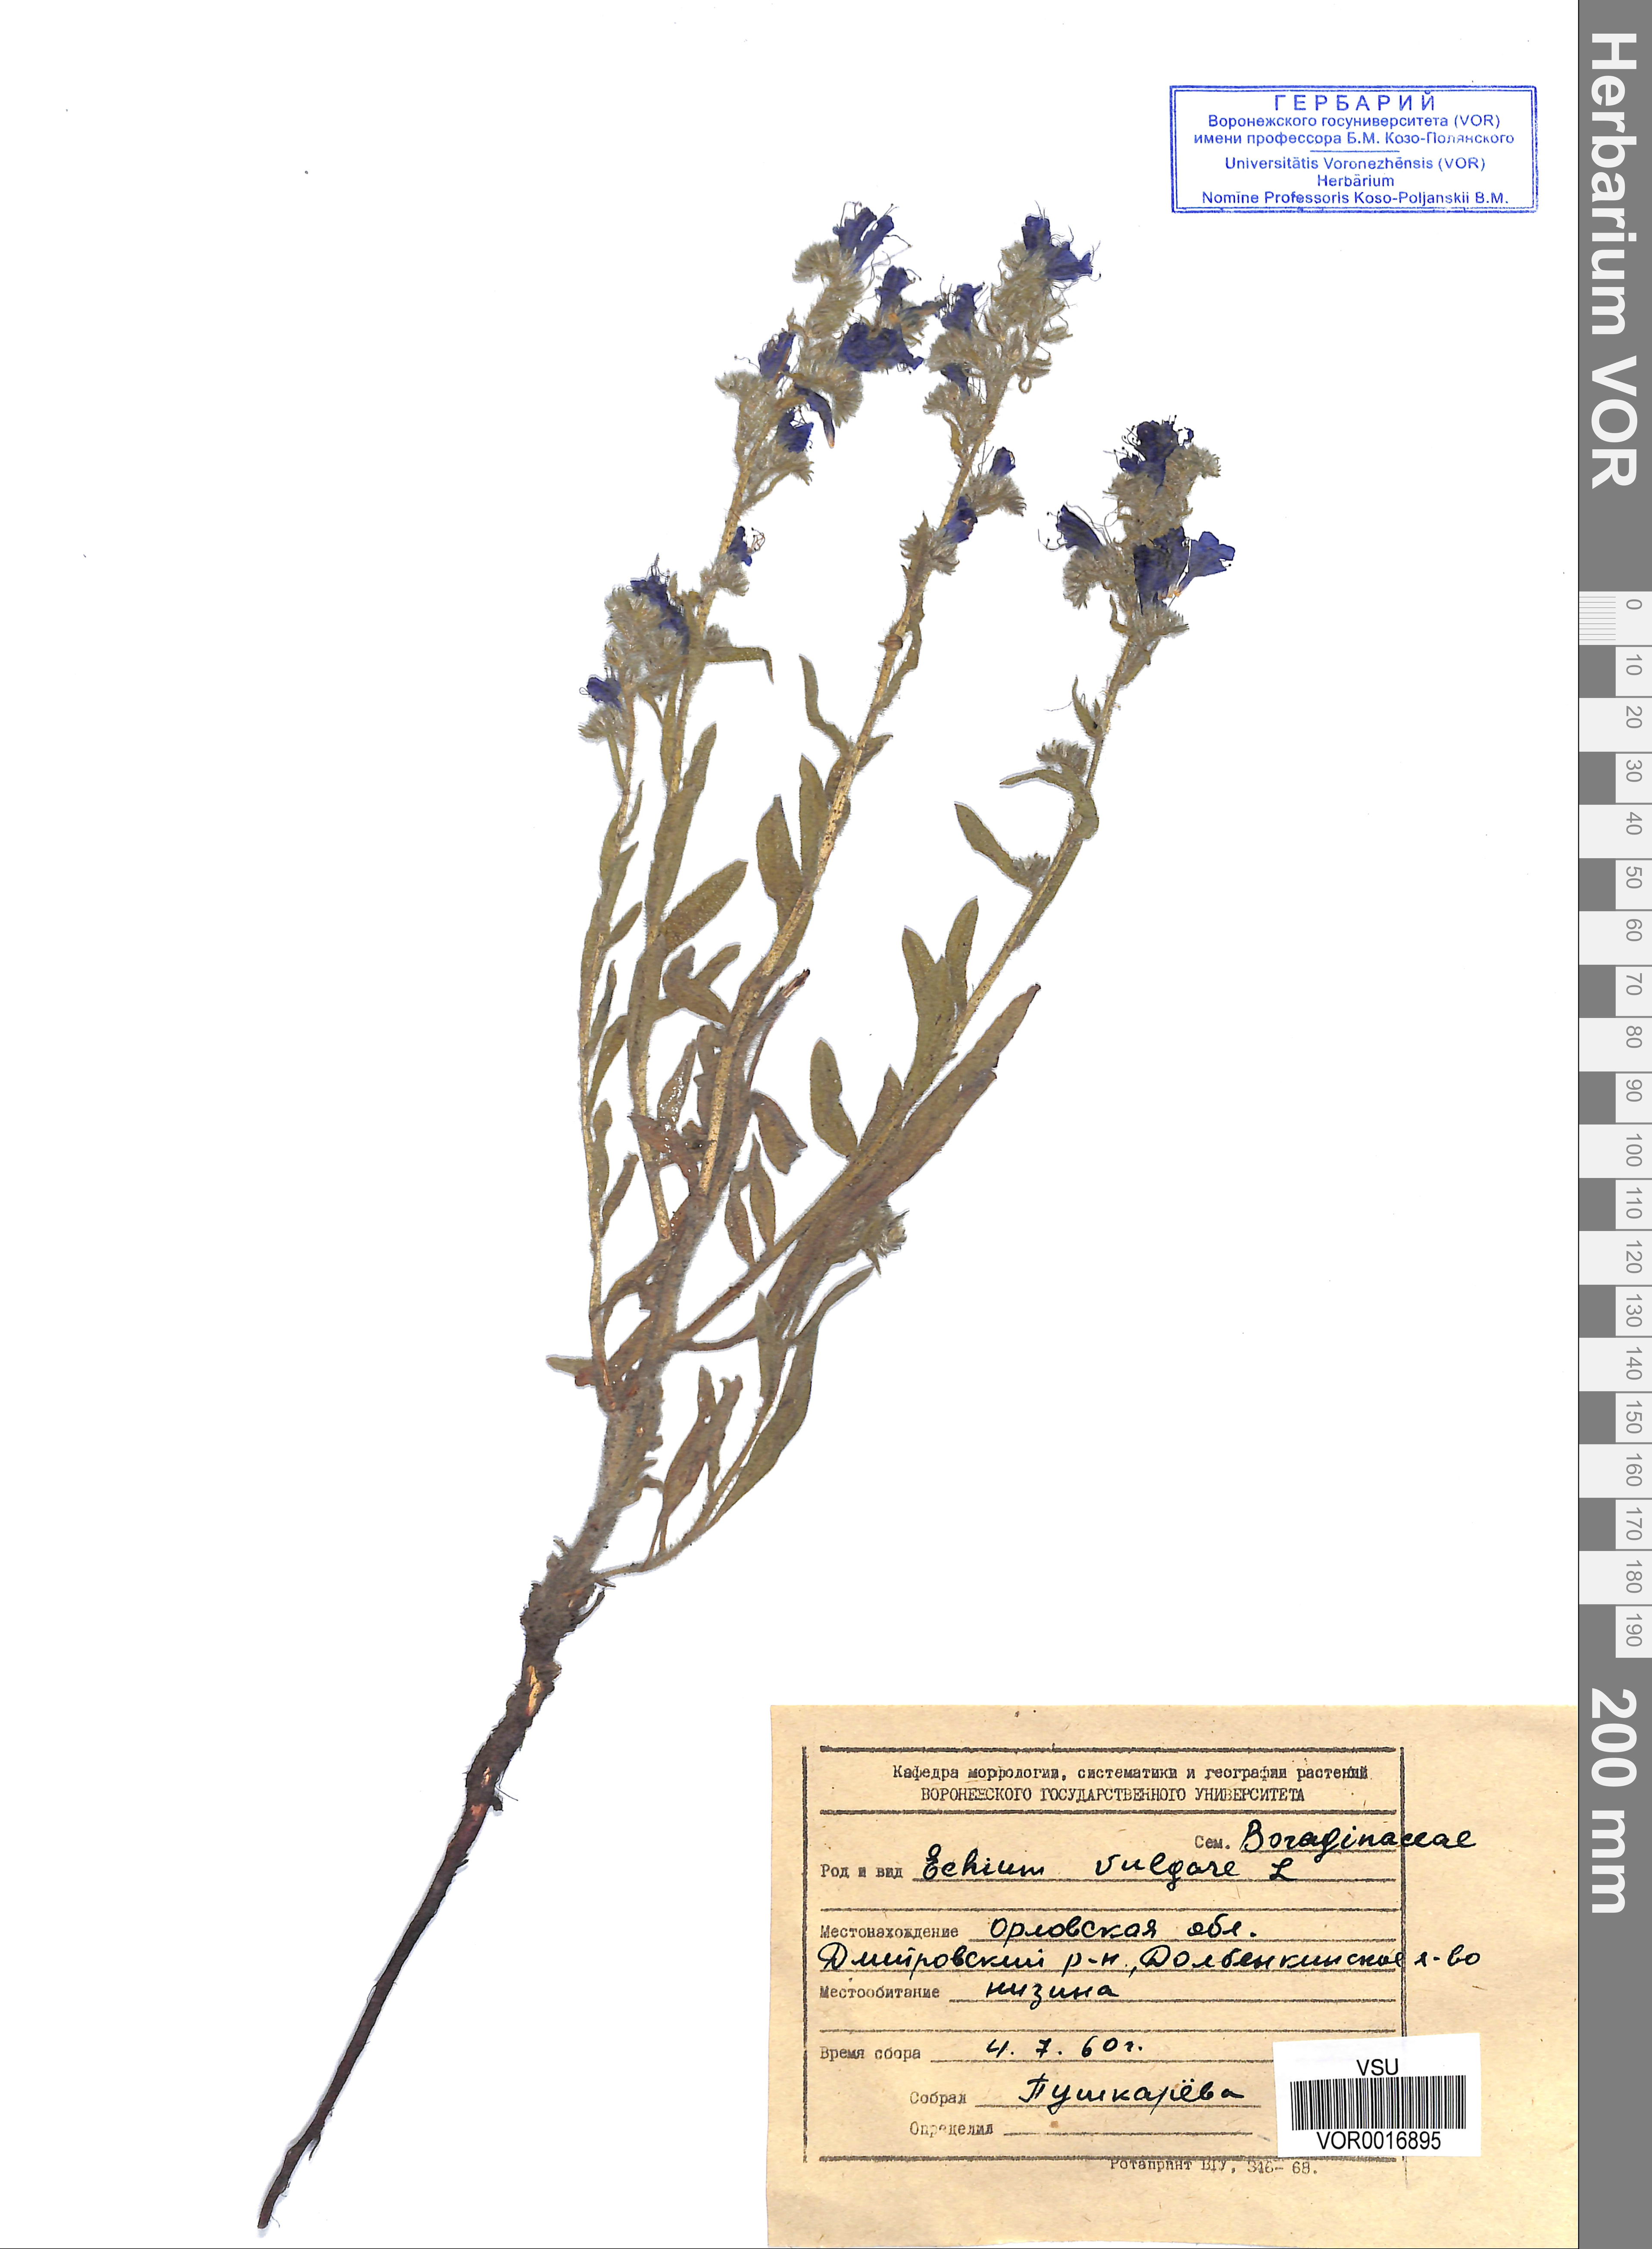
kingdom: Plantae
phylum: Tracheophyta
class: Magnoliopsida
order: Boraginales
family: Boraginaceae
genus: Echium
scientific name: Echium vulgare
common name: Common viper's bugloss
